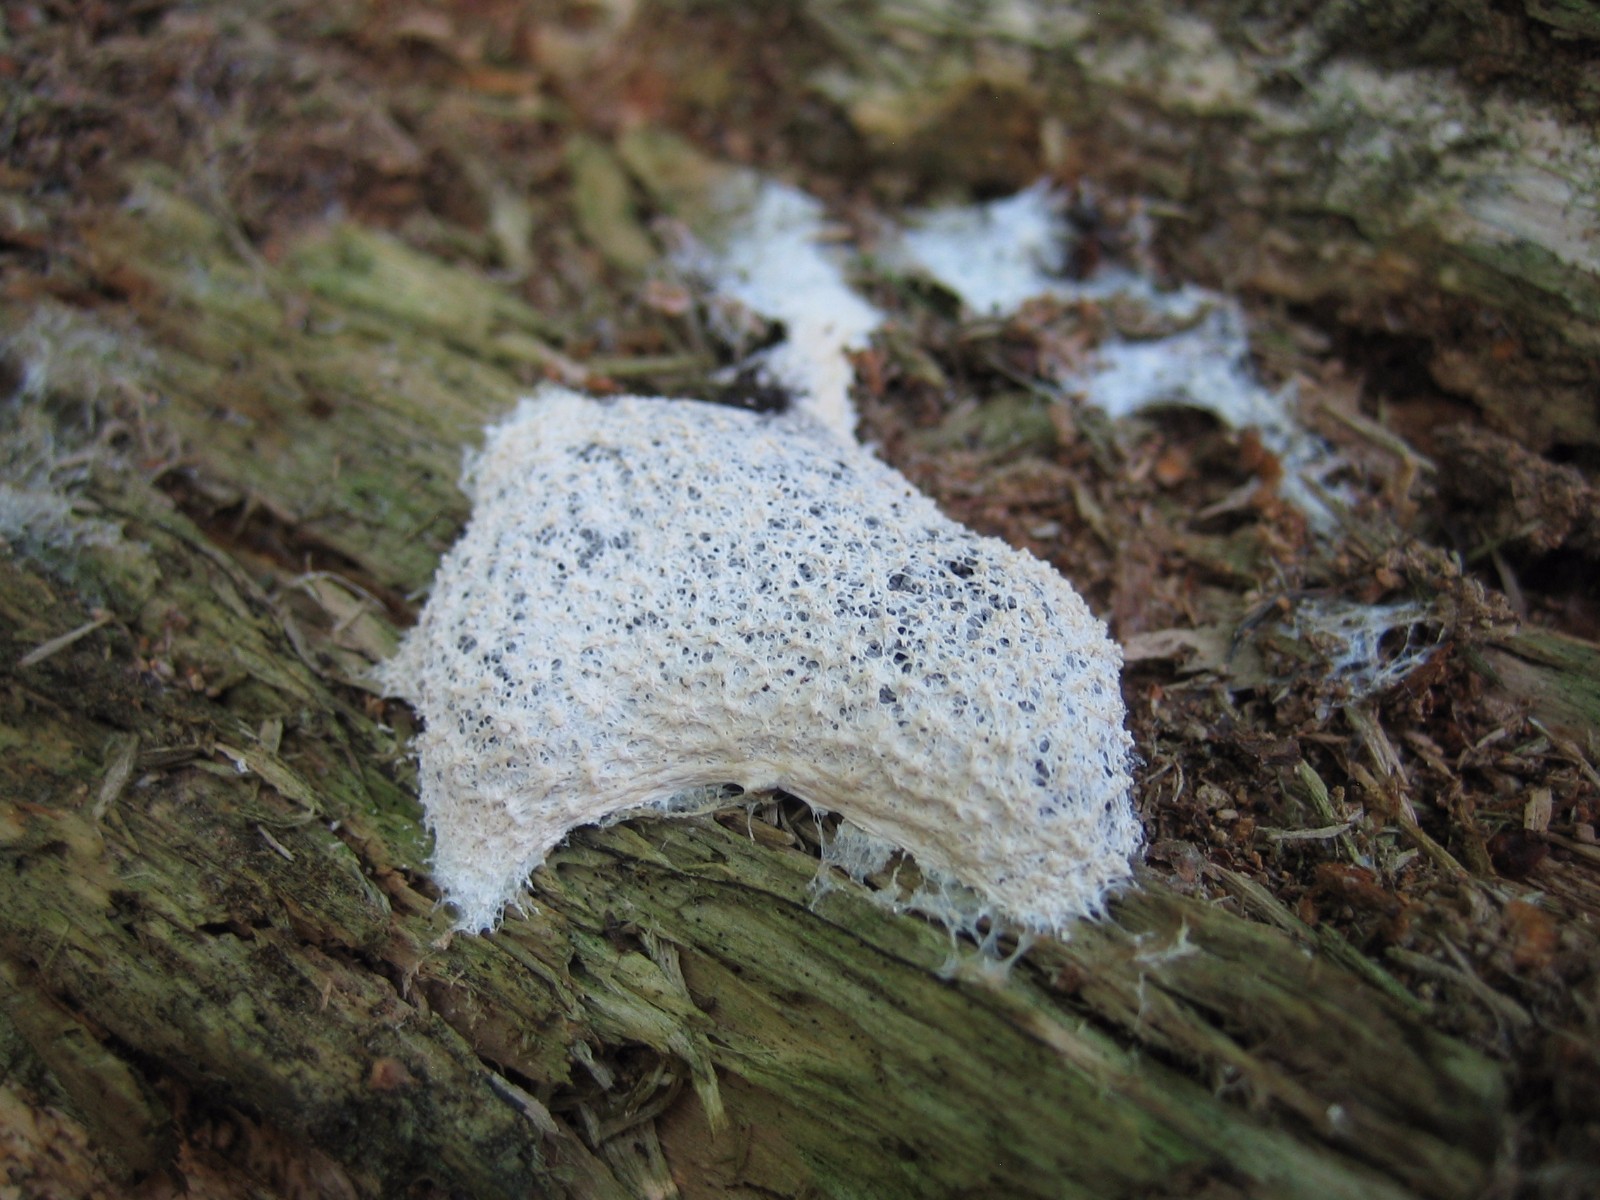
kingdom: Protozoa
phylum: Mycetozoa
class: Myxomycetes
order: Physarales
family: Physaraceae
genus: Fuligo
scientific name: Fuligo
